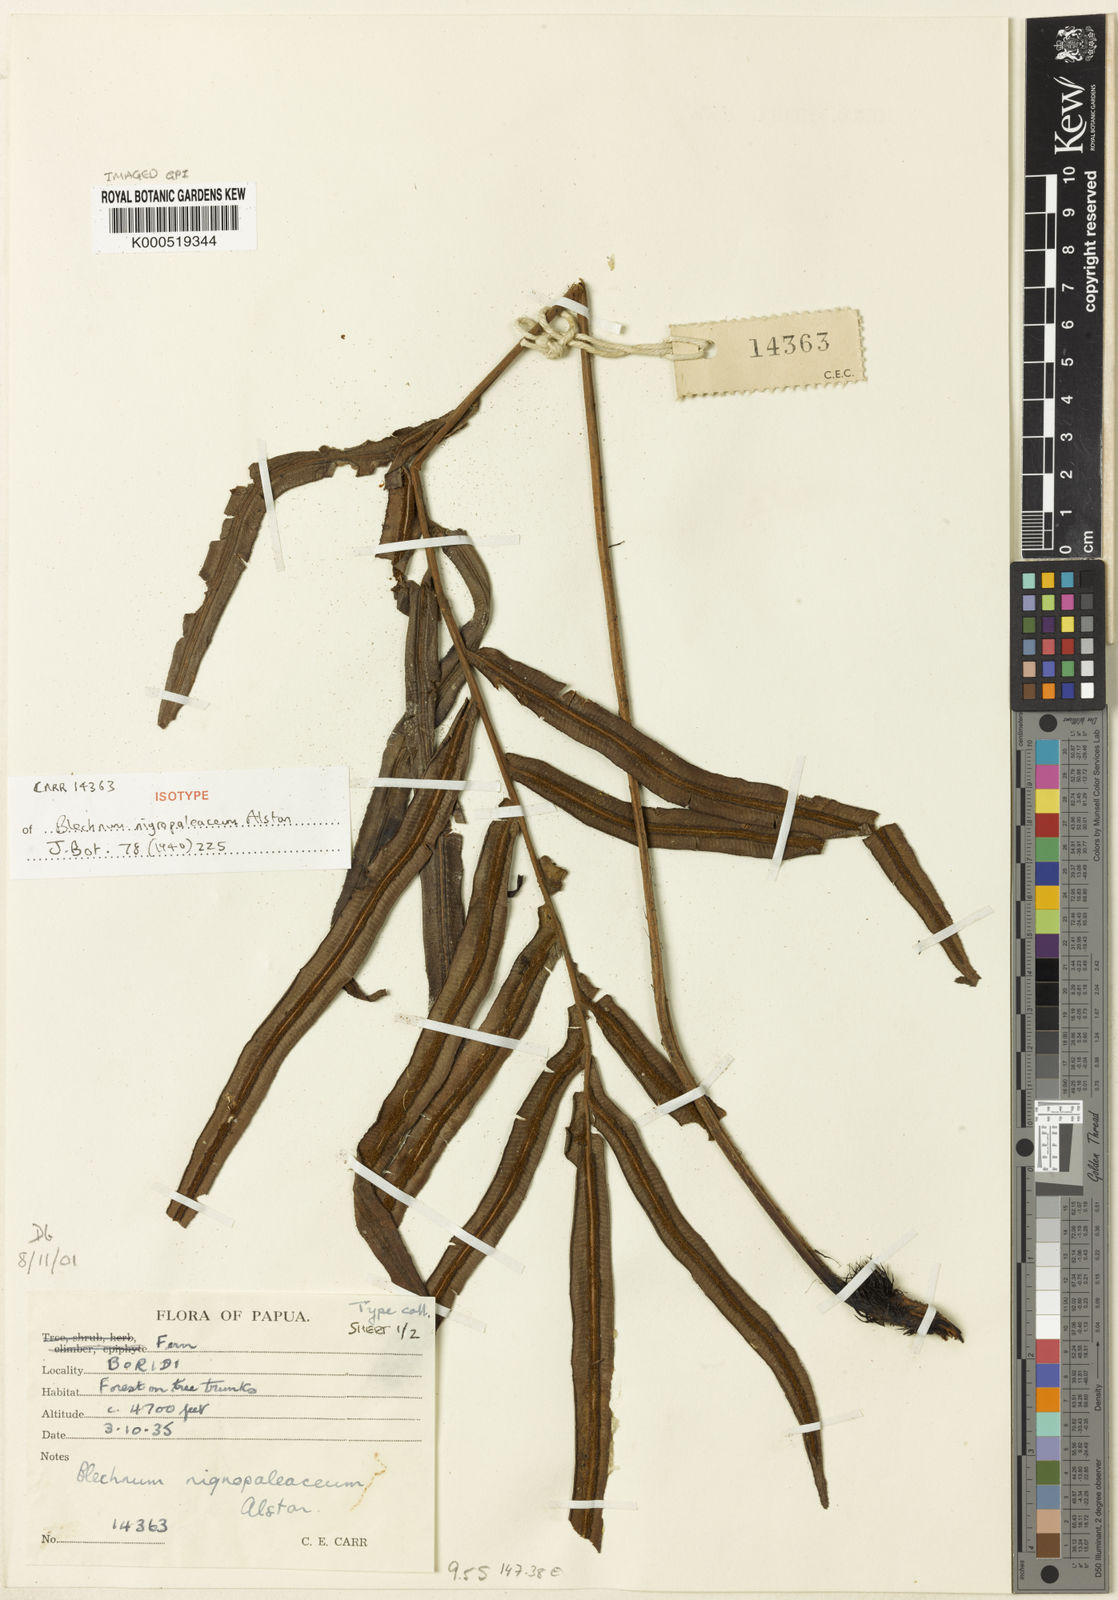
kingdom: Plantae
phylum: Tracheophyta
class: Polypodiopsida
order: Polypodiales
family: Blechnaceae
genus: Oceaniopteris
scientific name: Oceaniopteris whelanii
